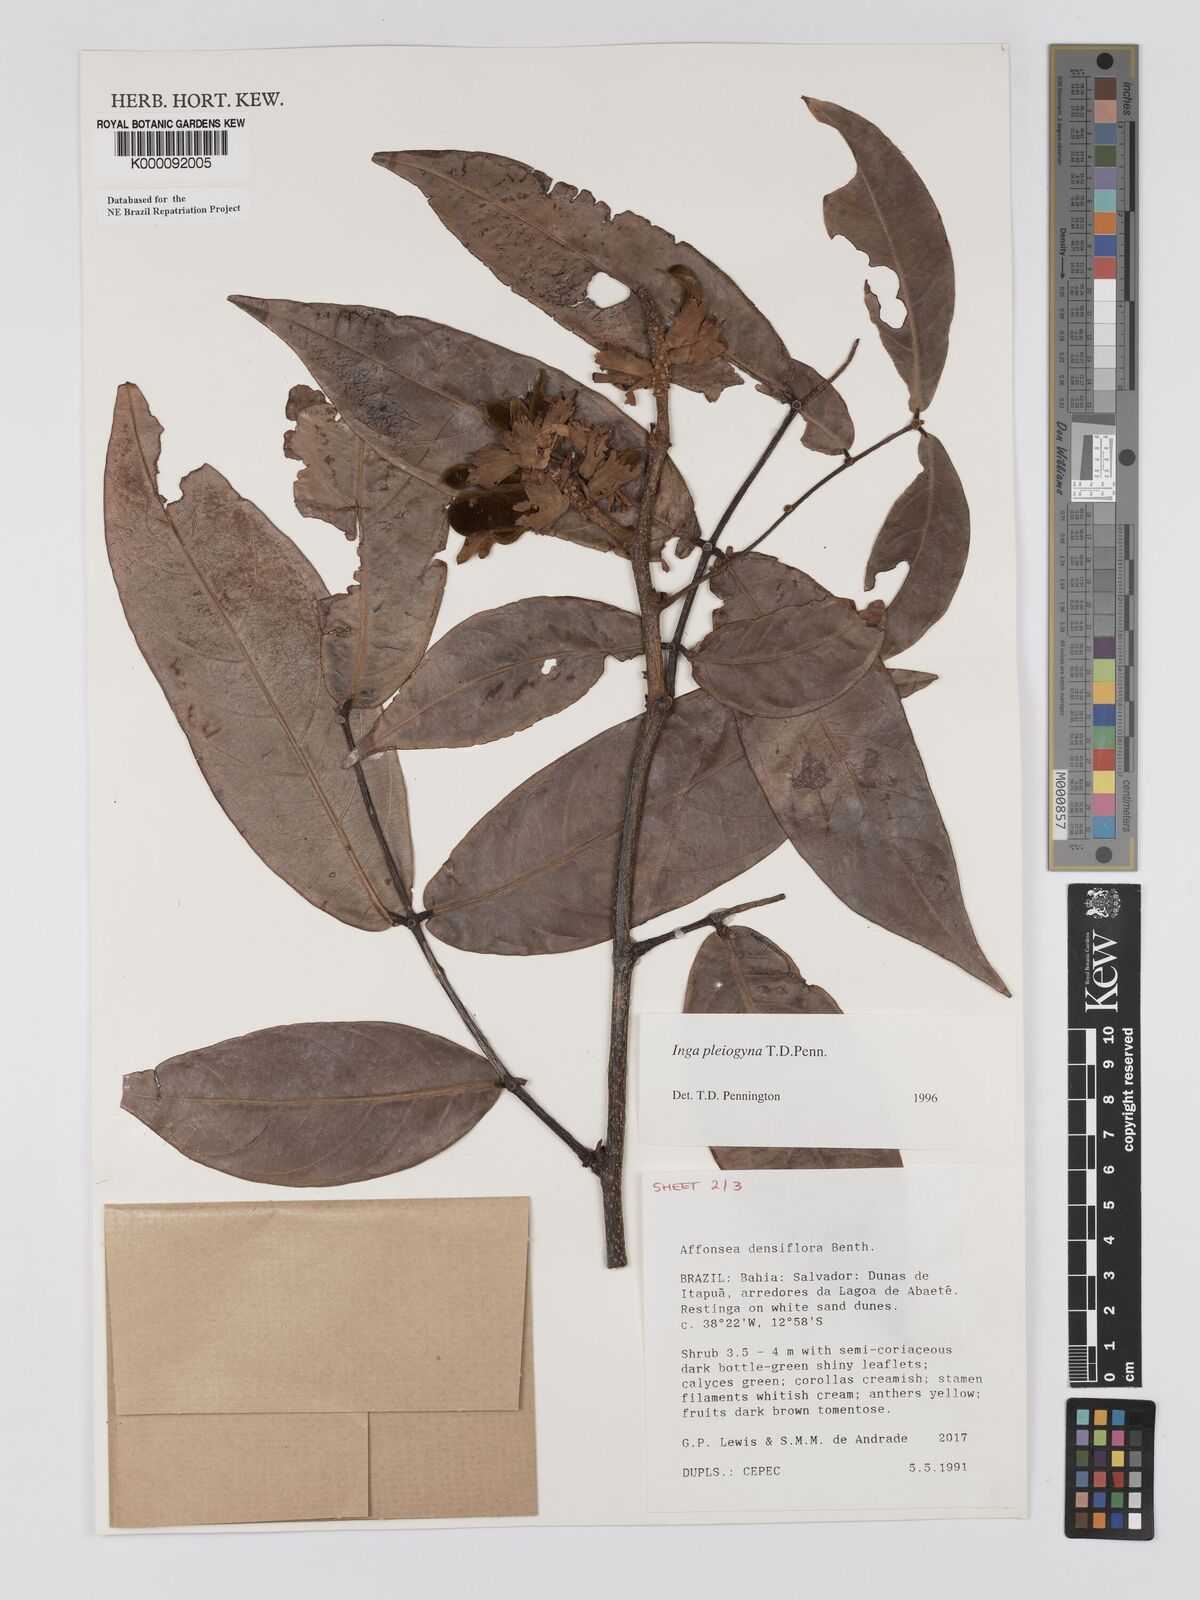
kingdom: Plantae
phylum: Tracheophyta
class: Magnoliopsida
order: Fabales
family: Fabaceae
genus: Inga
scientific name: Inga pleiogyna
